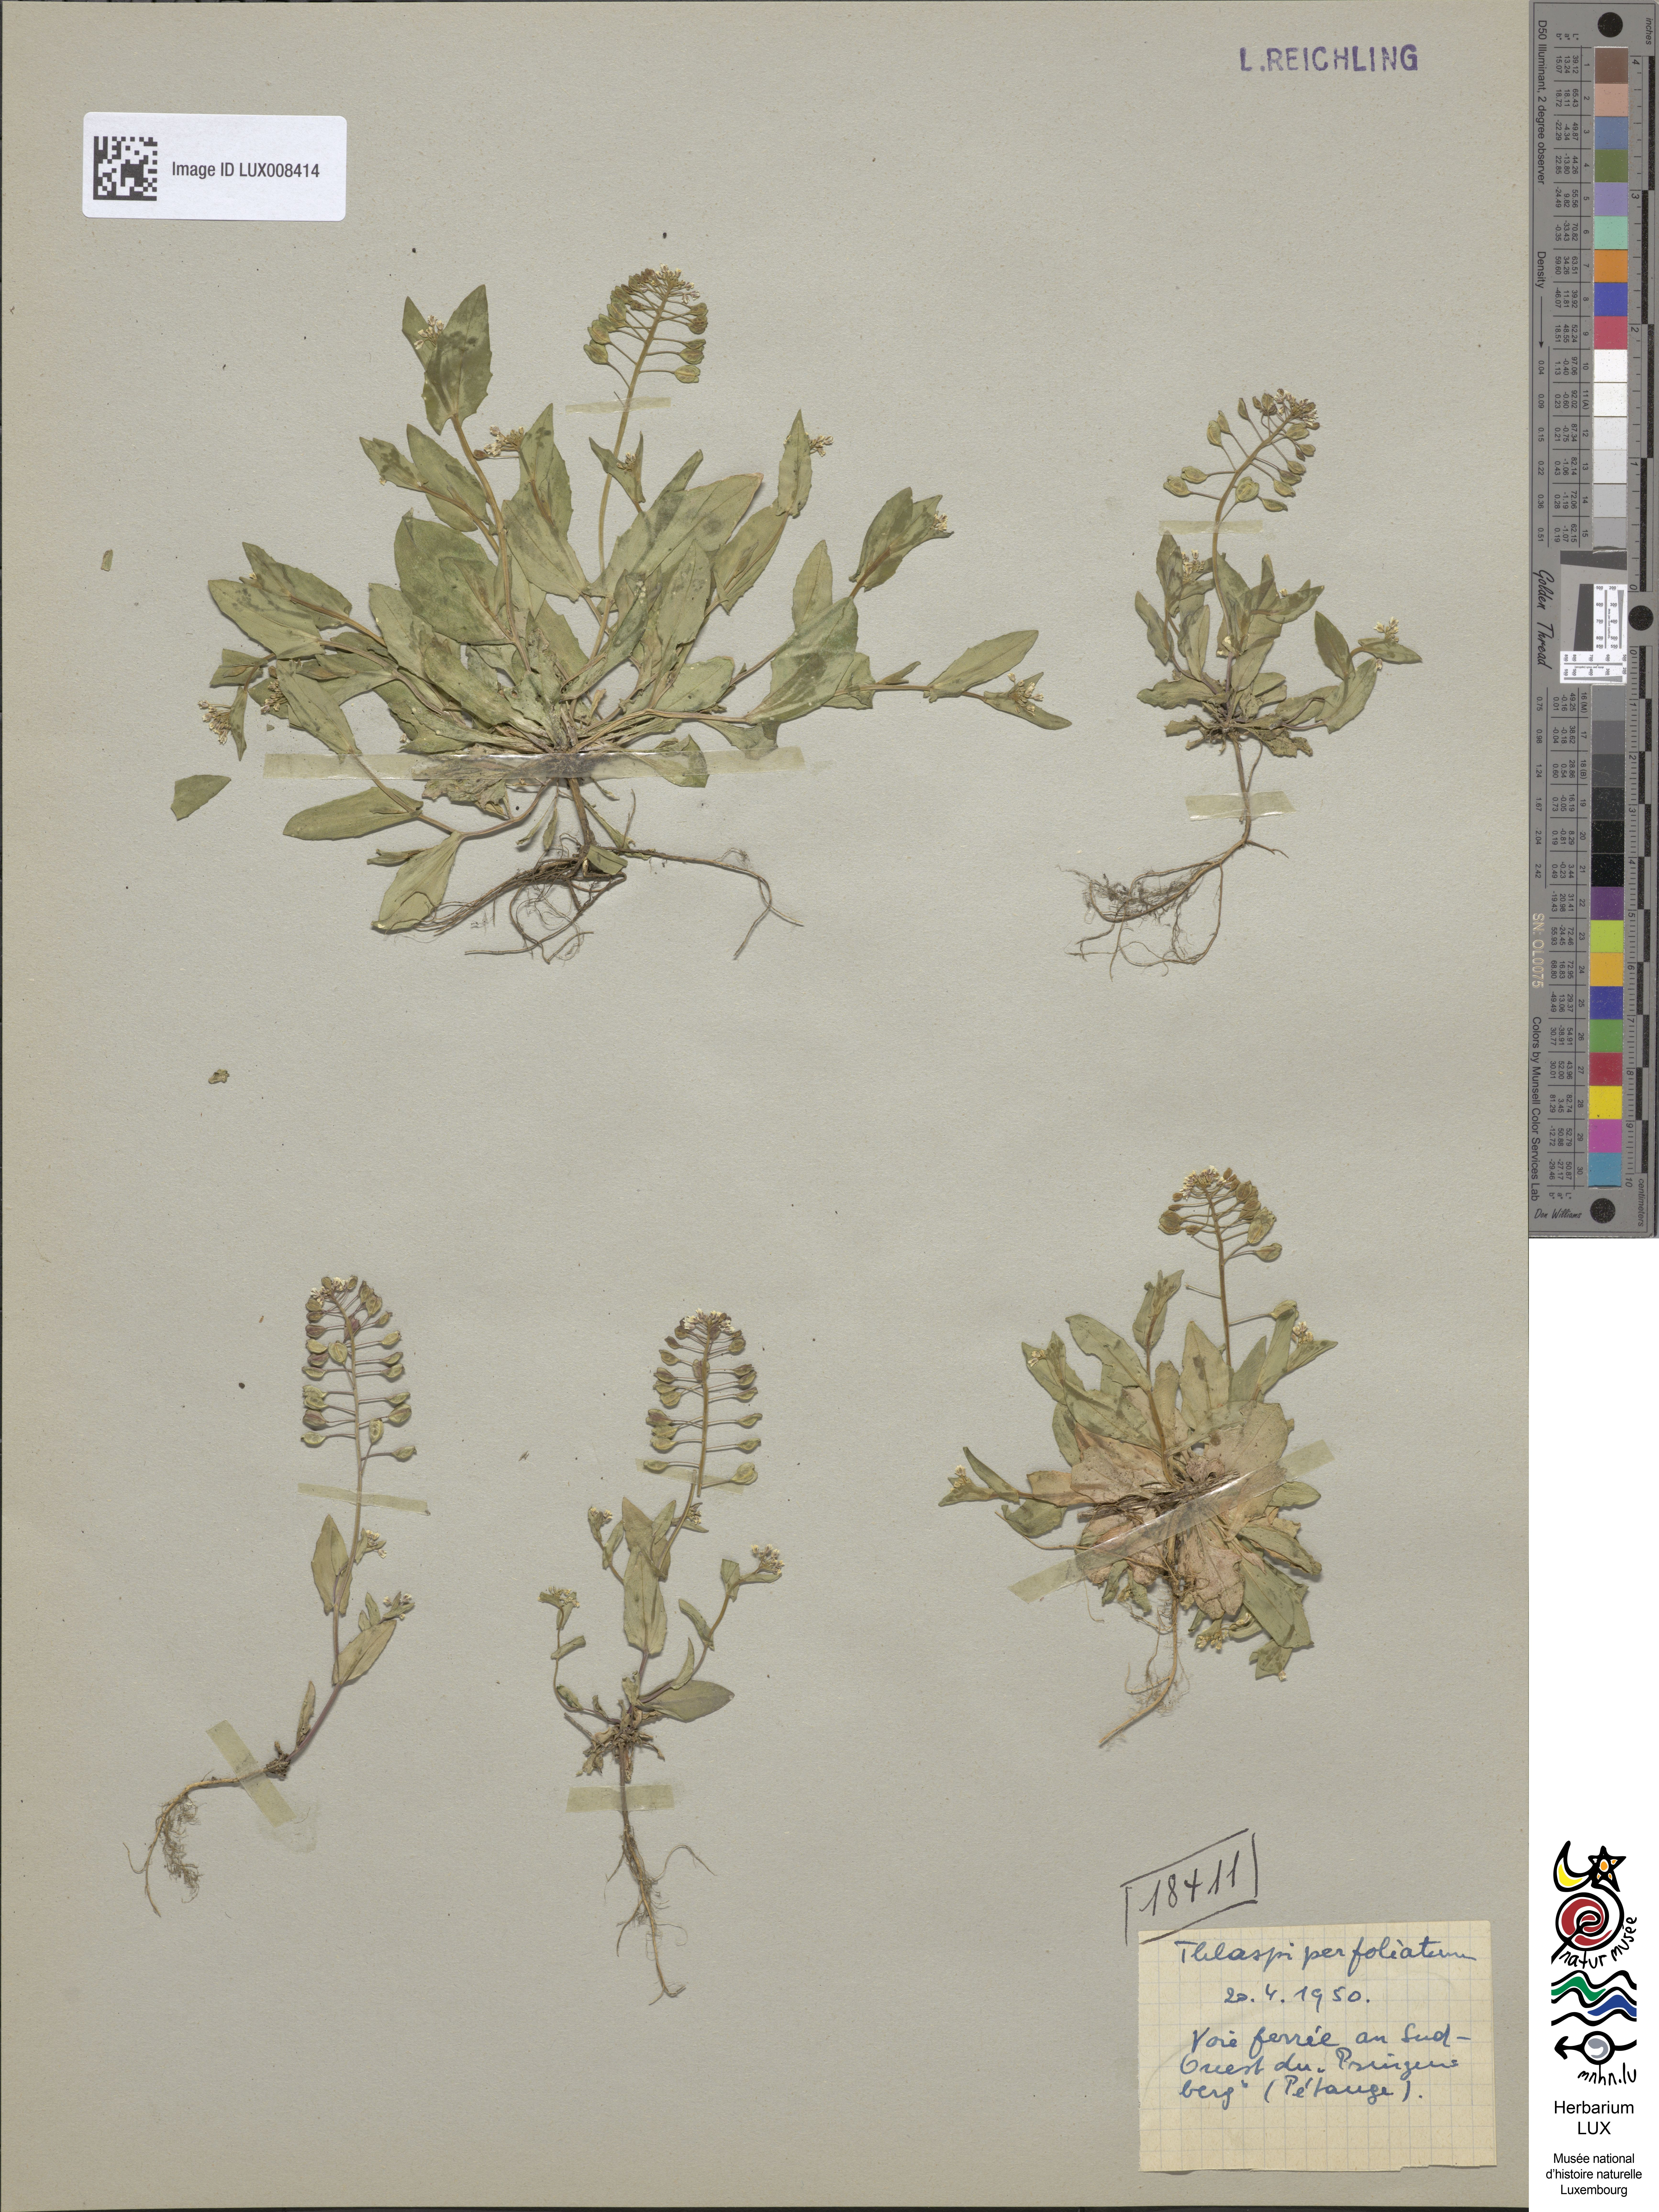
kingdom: Plantae
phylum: Tracheophyta
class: Magnoliopsida
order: Brassicales
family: Brassicaceae
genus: Noccaea
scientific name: Noccaea perfoliata
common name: Perfoliate pennycress
